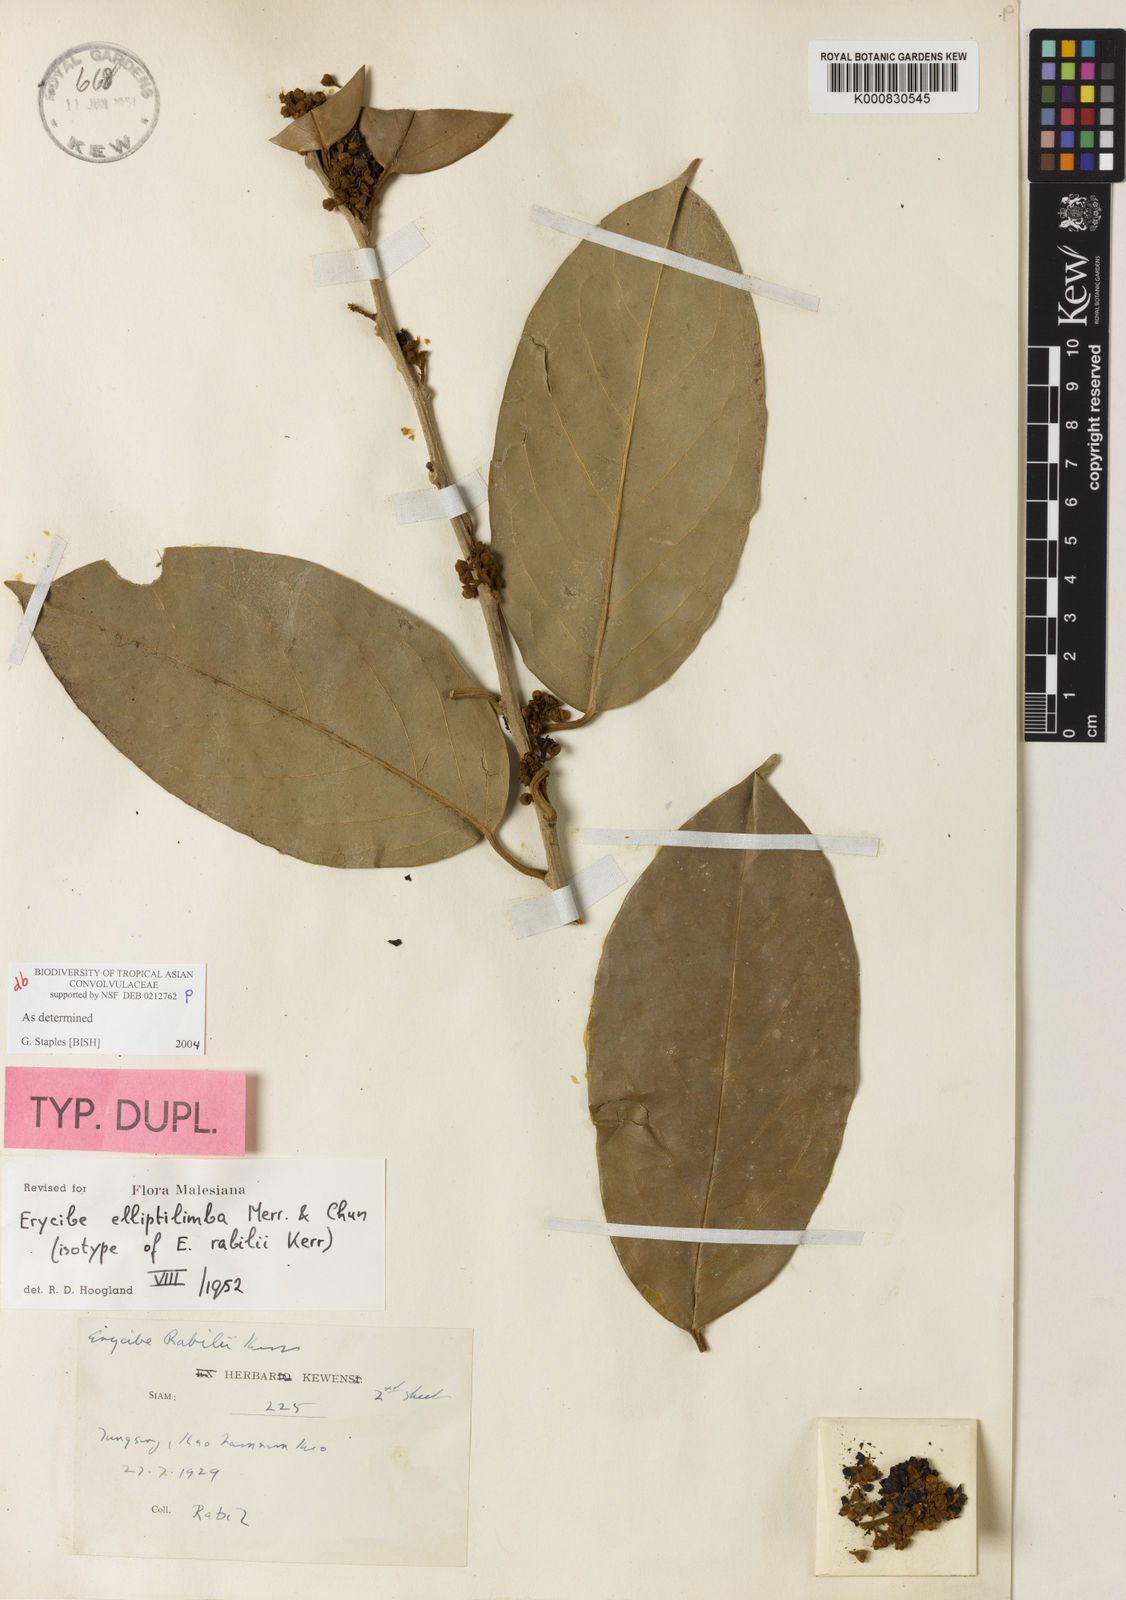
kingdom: Plantae
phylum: Tracheophyta
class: Magnoliopsida
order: Solanales
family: Convolvulaceae
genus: Erycibe
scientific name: Erycibe elliptilimba
